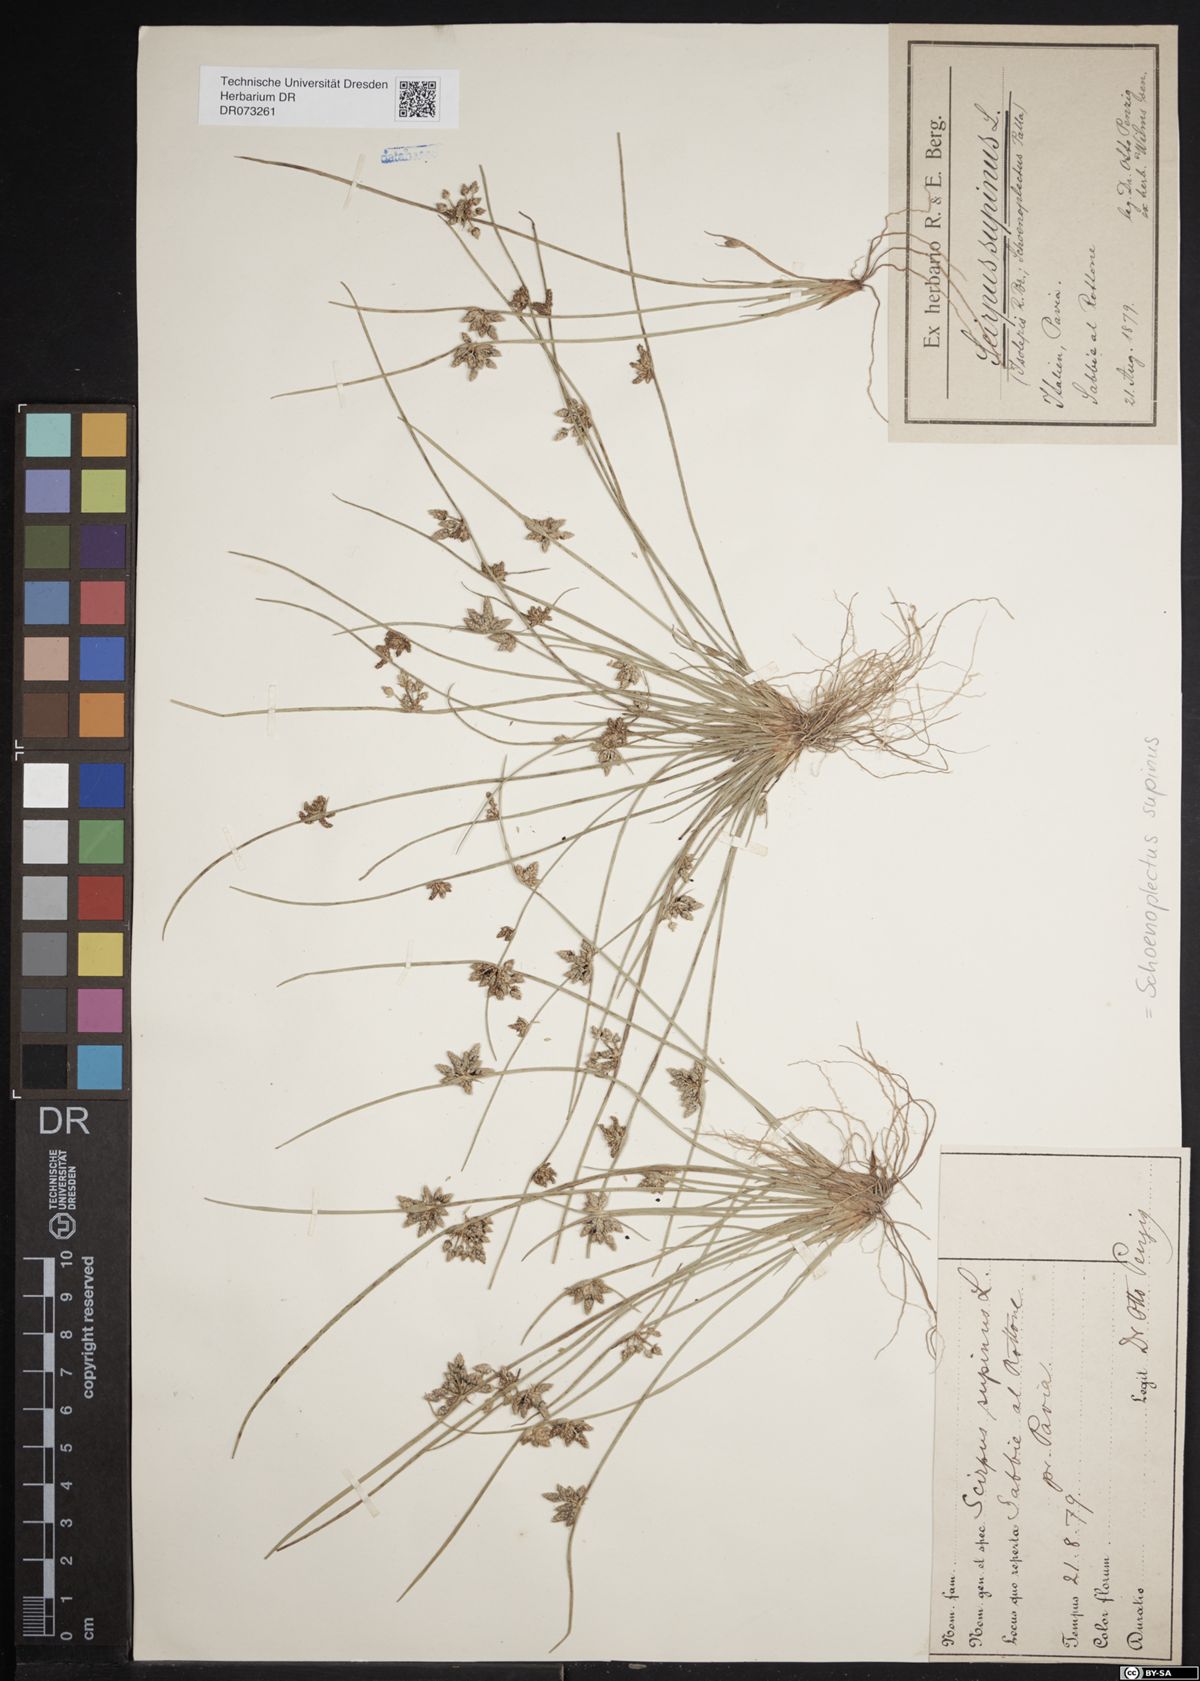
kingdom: Plantae
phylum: Tracheophyta
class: Liliopsida
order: Poales
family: Cyperaceae
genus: Schoenoplectiella
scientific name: Schoenoplectiella supina
